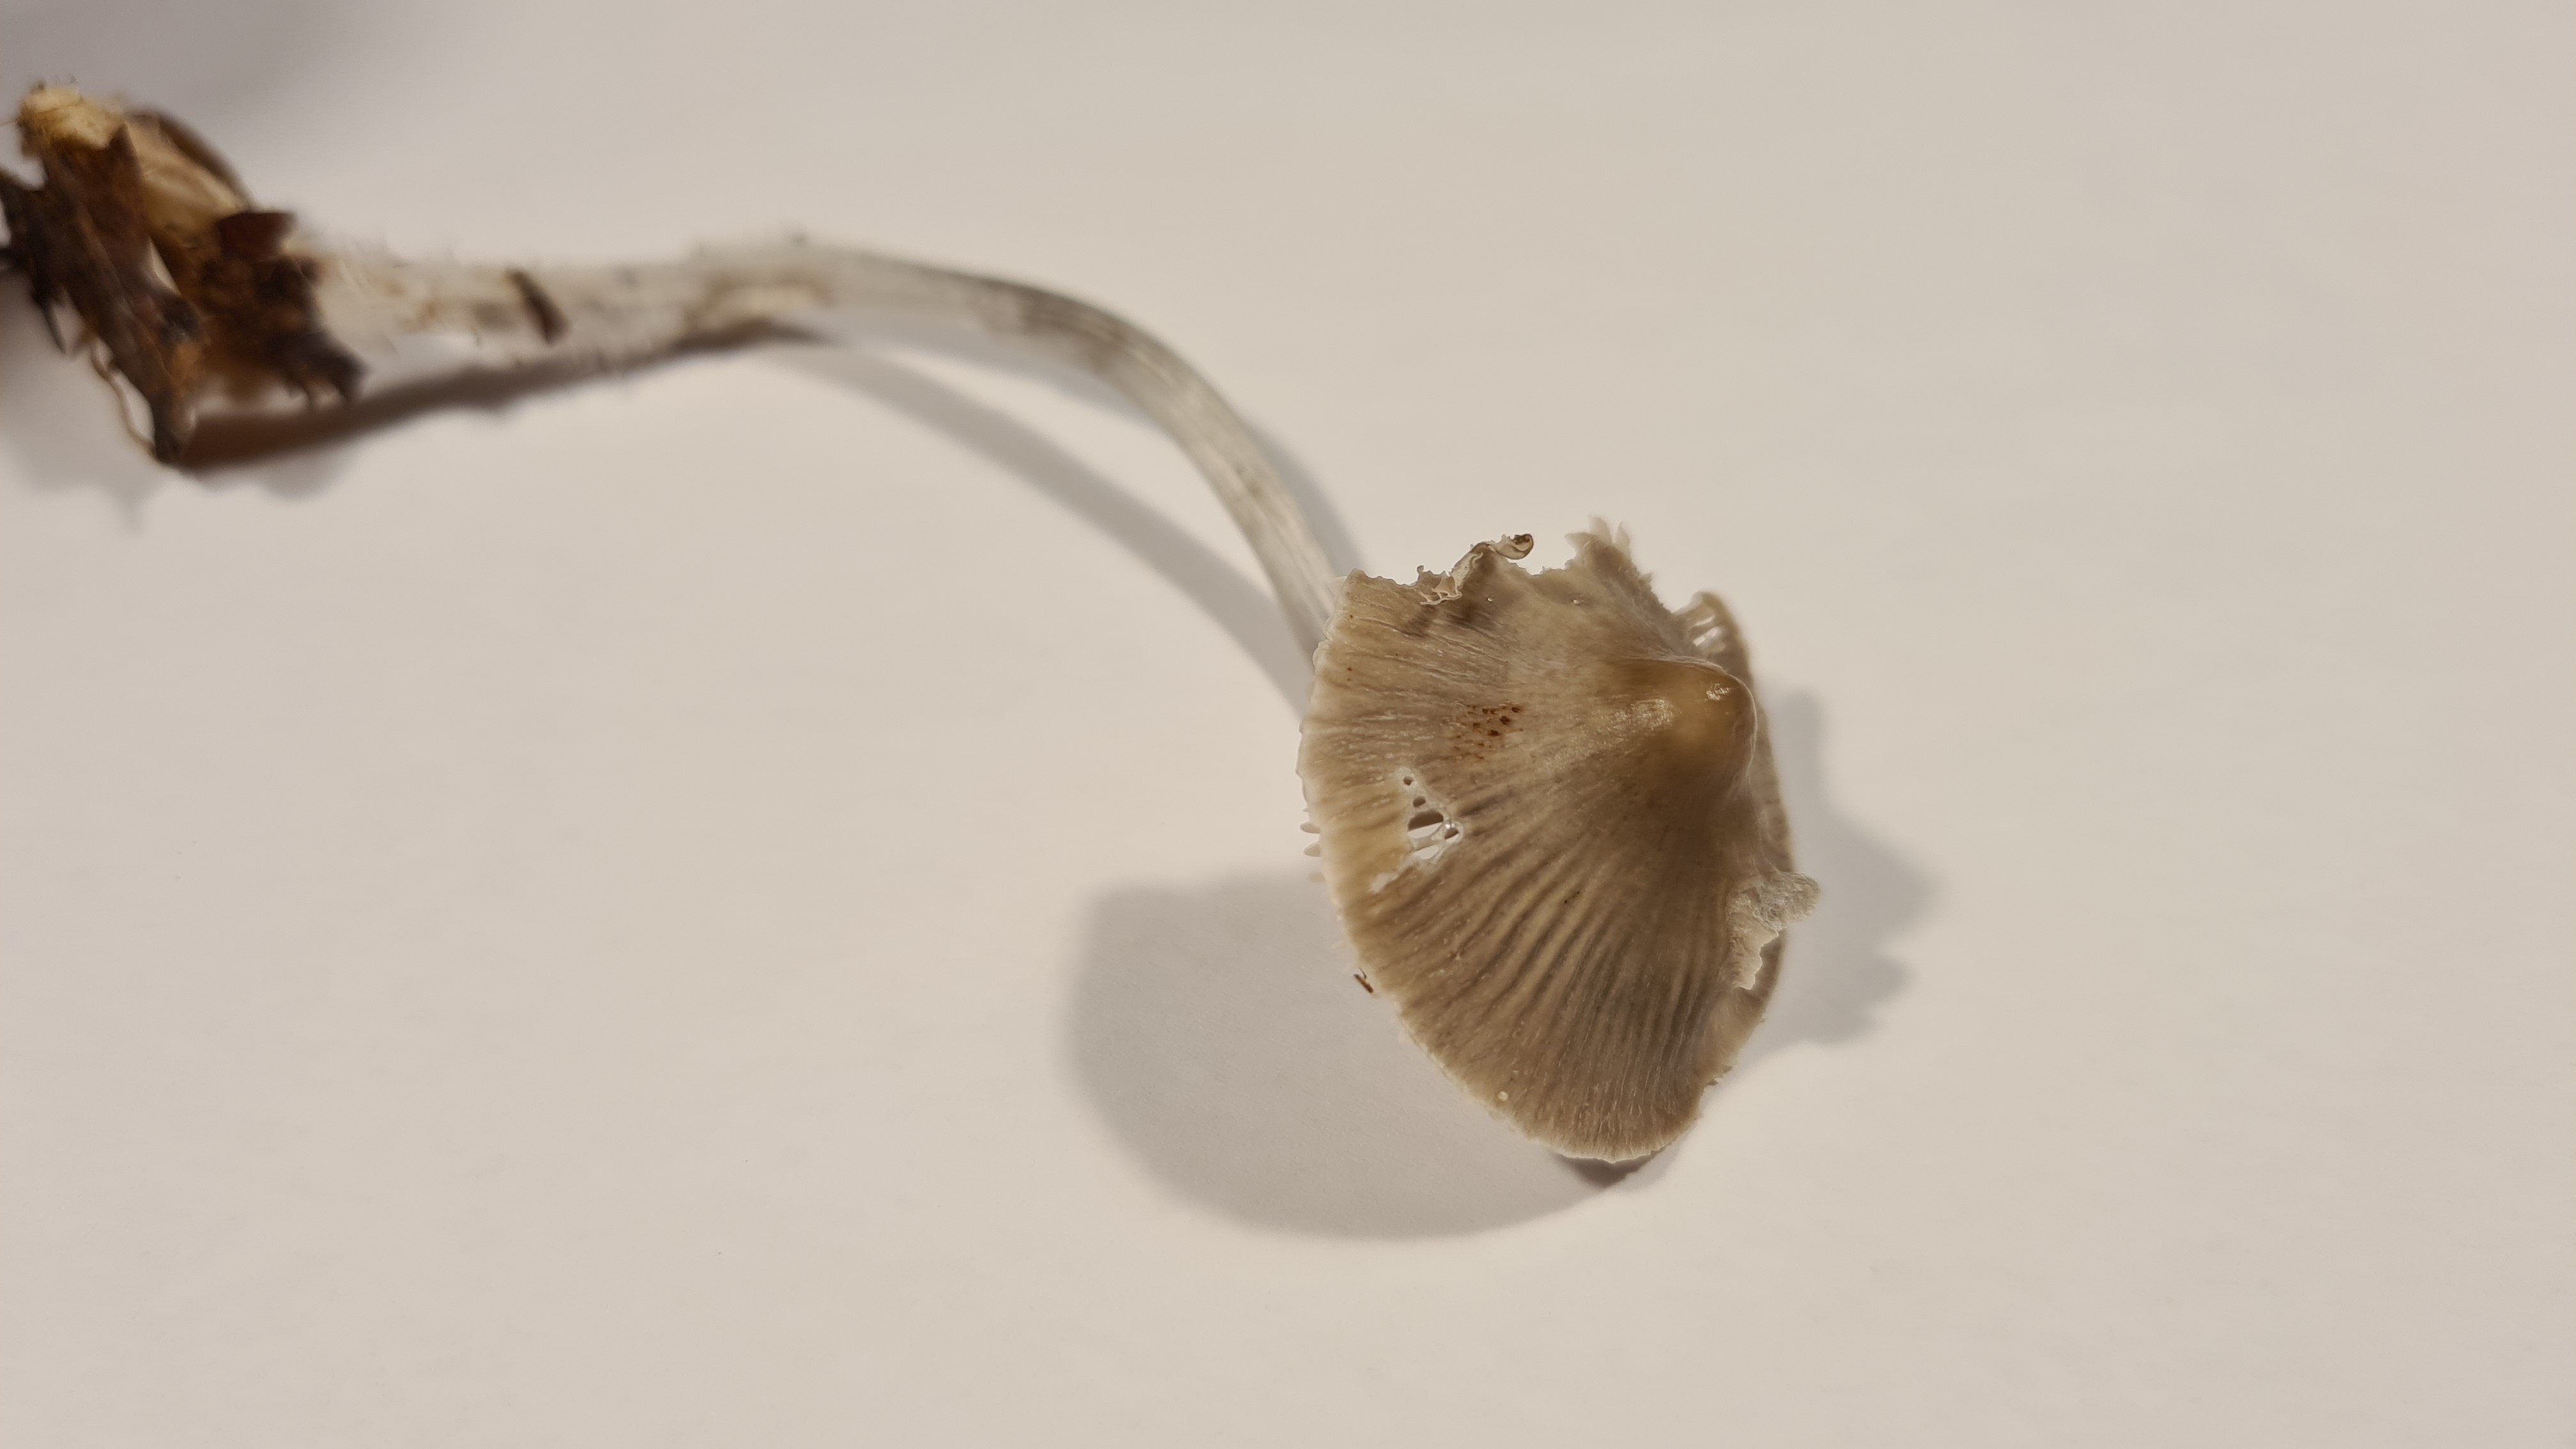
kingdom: Fungi
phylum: Basidiomycota
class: Agaricomycetes
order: Agaricales
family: Mycenaceae
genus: Mycena
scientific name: Mycena polygramma
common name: mangestribet huesvamp
